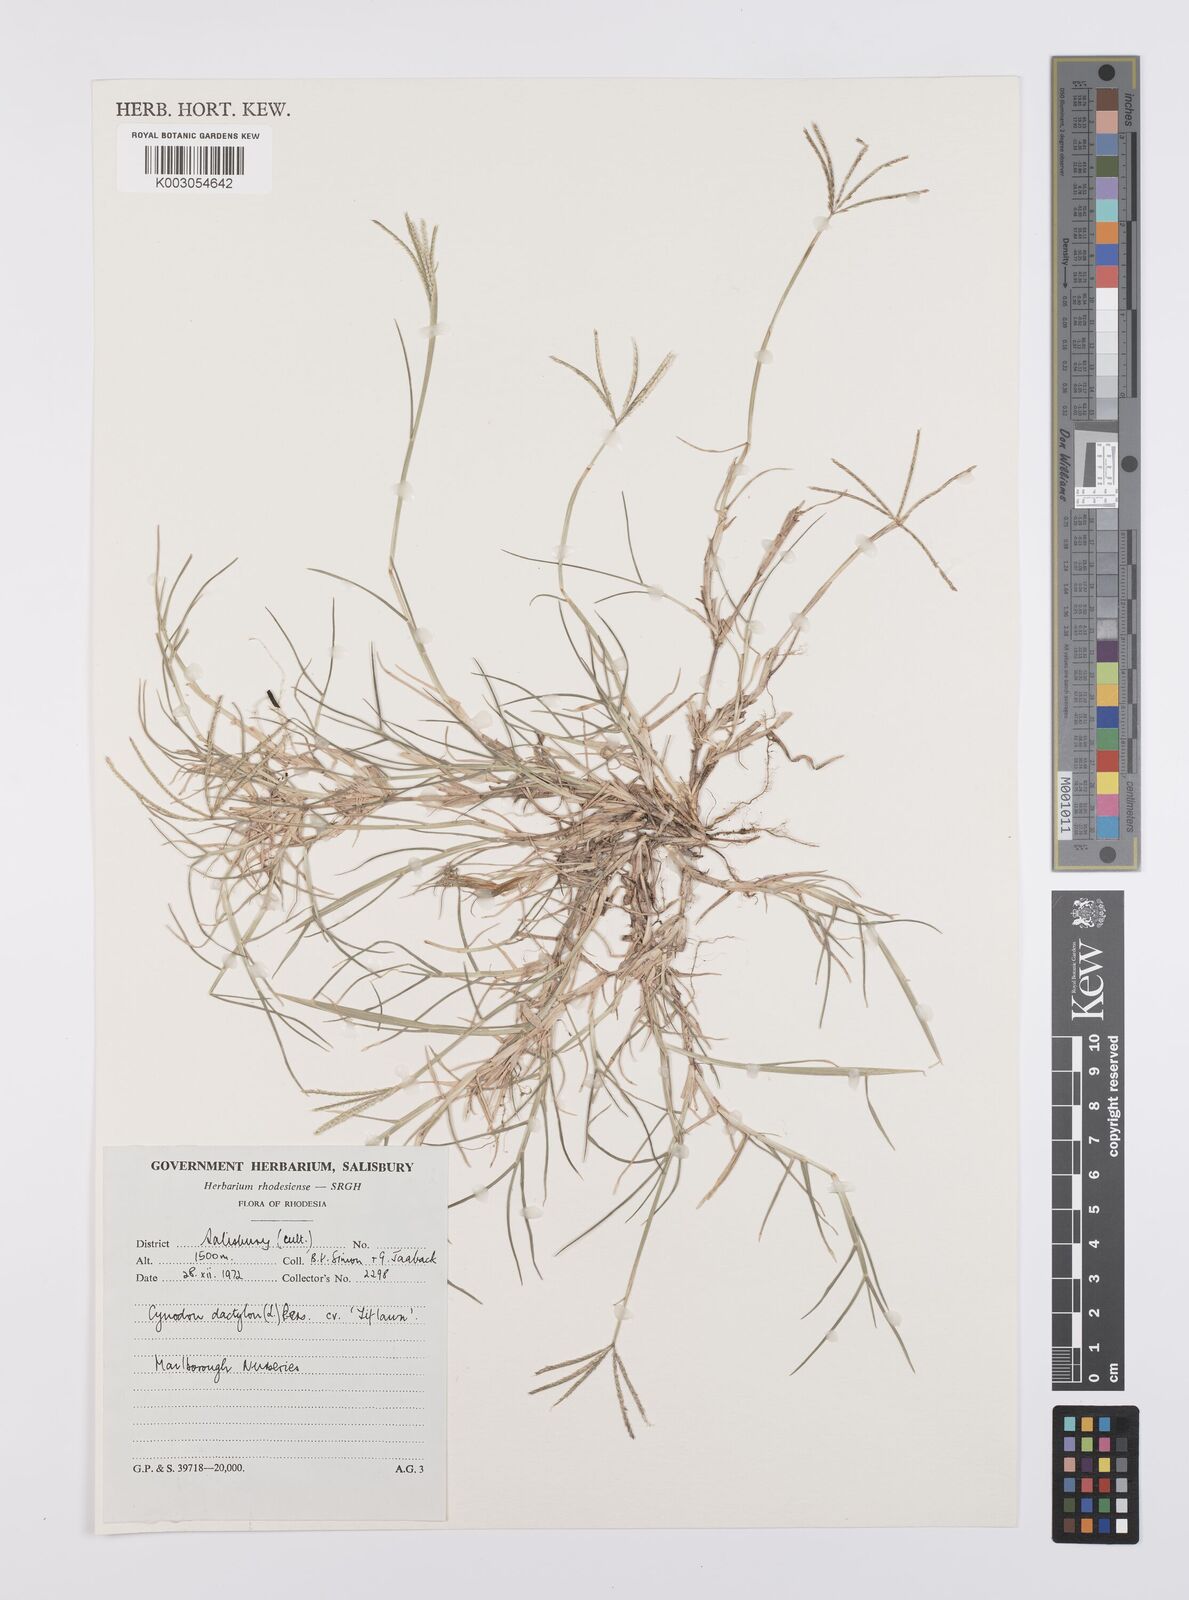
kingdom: Plantae
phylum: Tracheophyta
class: Liliopsida
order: Poales
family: Poaceae
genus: Cynodon
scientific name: Cynodon dactylon
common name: Bermuda grass
